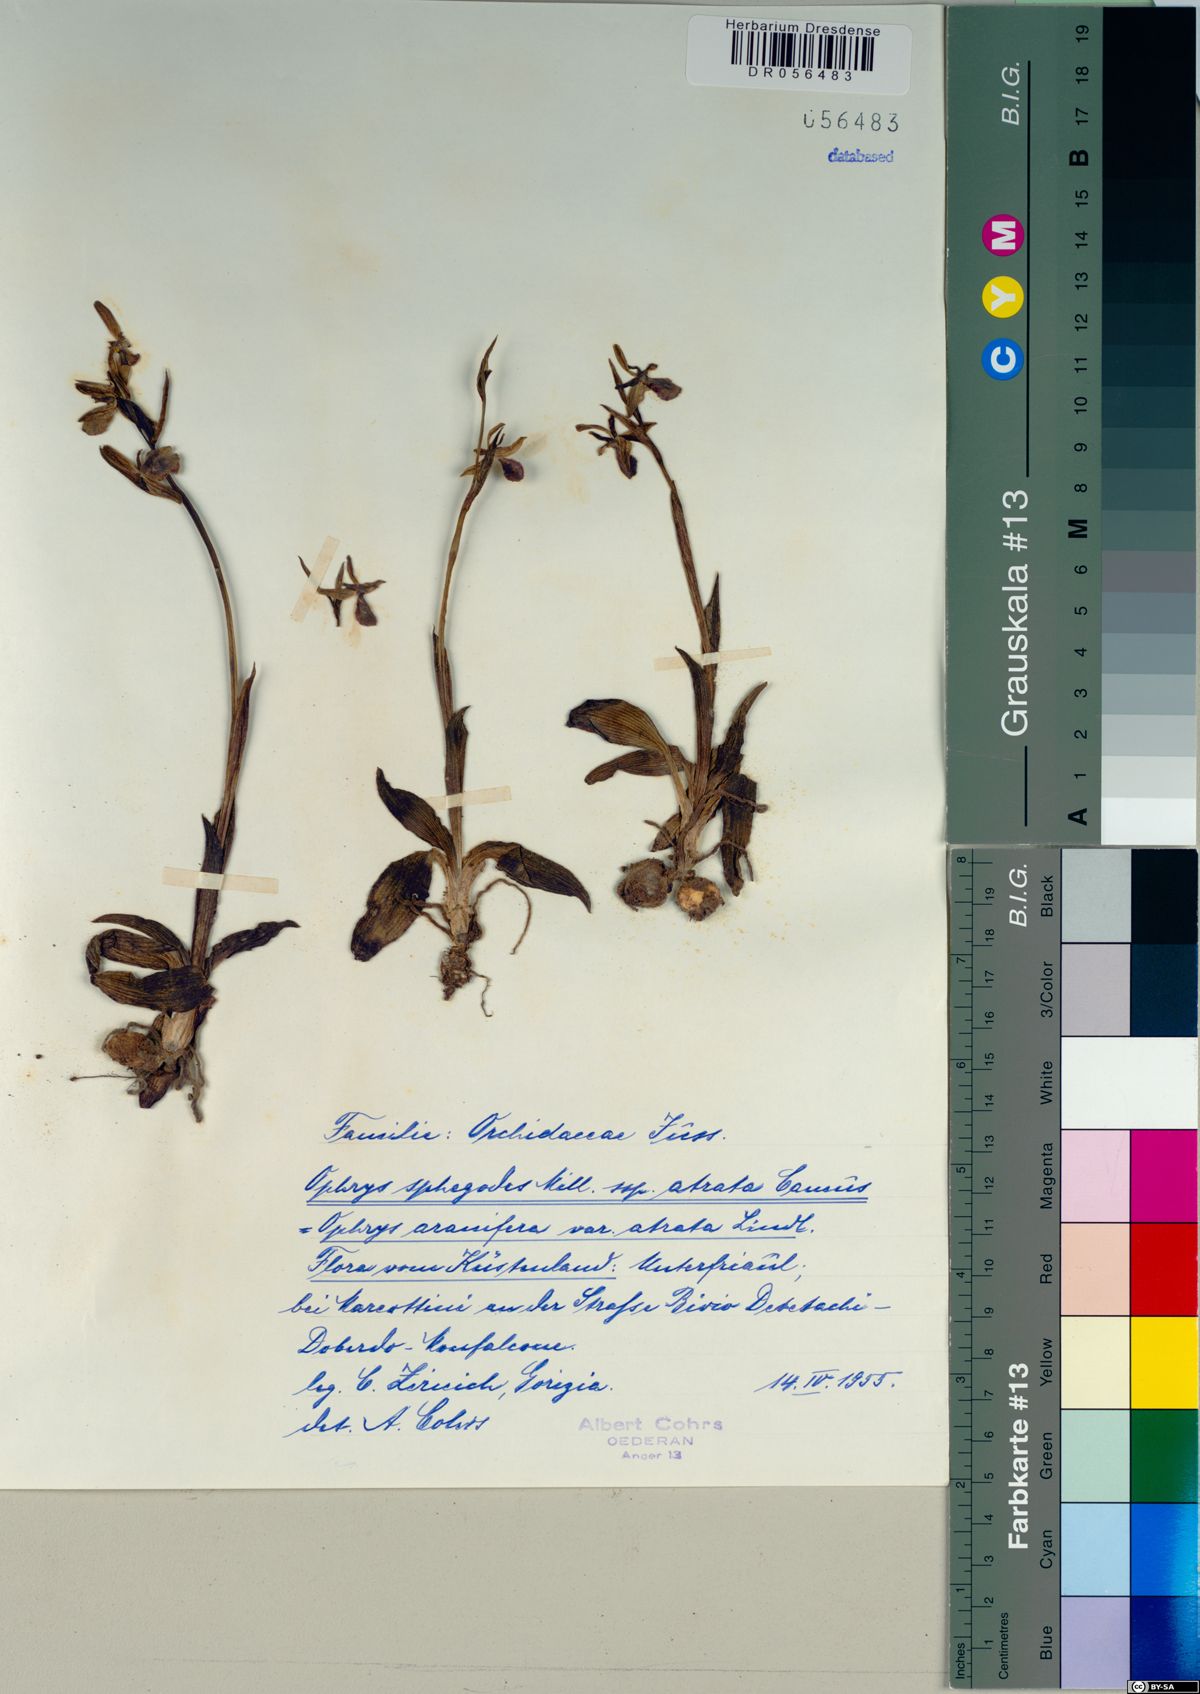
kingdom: Plantae
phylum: Tracheophyta
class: Liliopsida
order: Asparagales
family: Orchidaceae
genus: Ophrys
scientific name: Ophrys sphegodes
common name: Early spider-orchid
